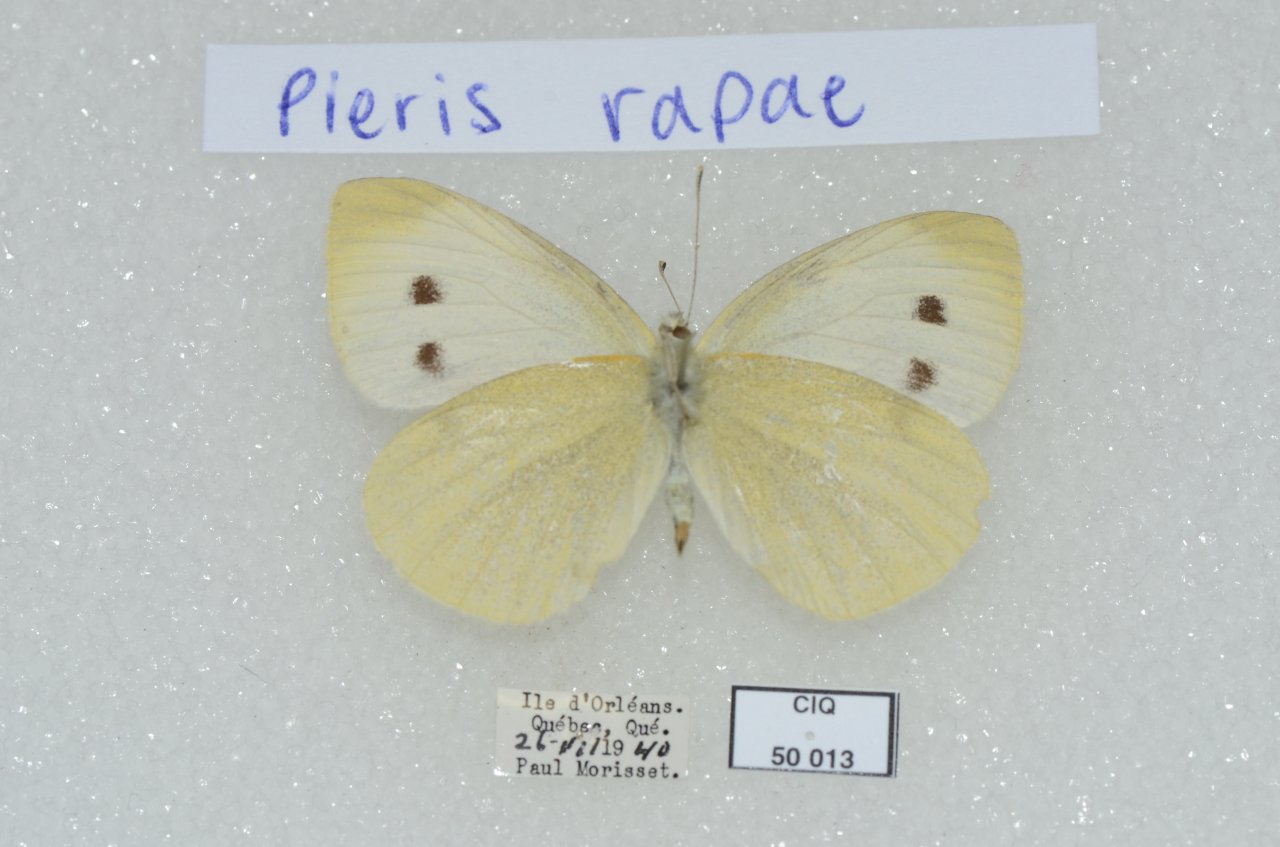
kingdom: Animalia
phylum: Arthropoda
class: Insecta
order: Lepidoptera
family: Pieridae
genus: Pieris
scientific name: Pieris rapae
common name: Cabbage White
